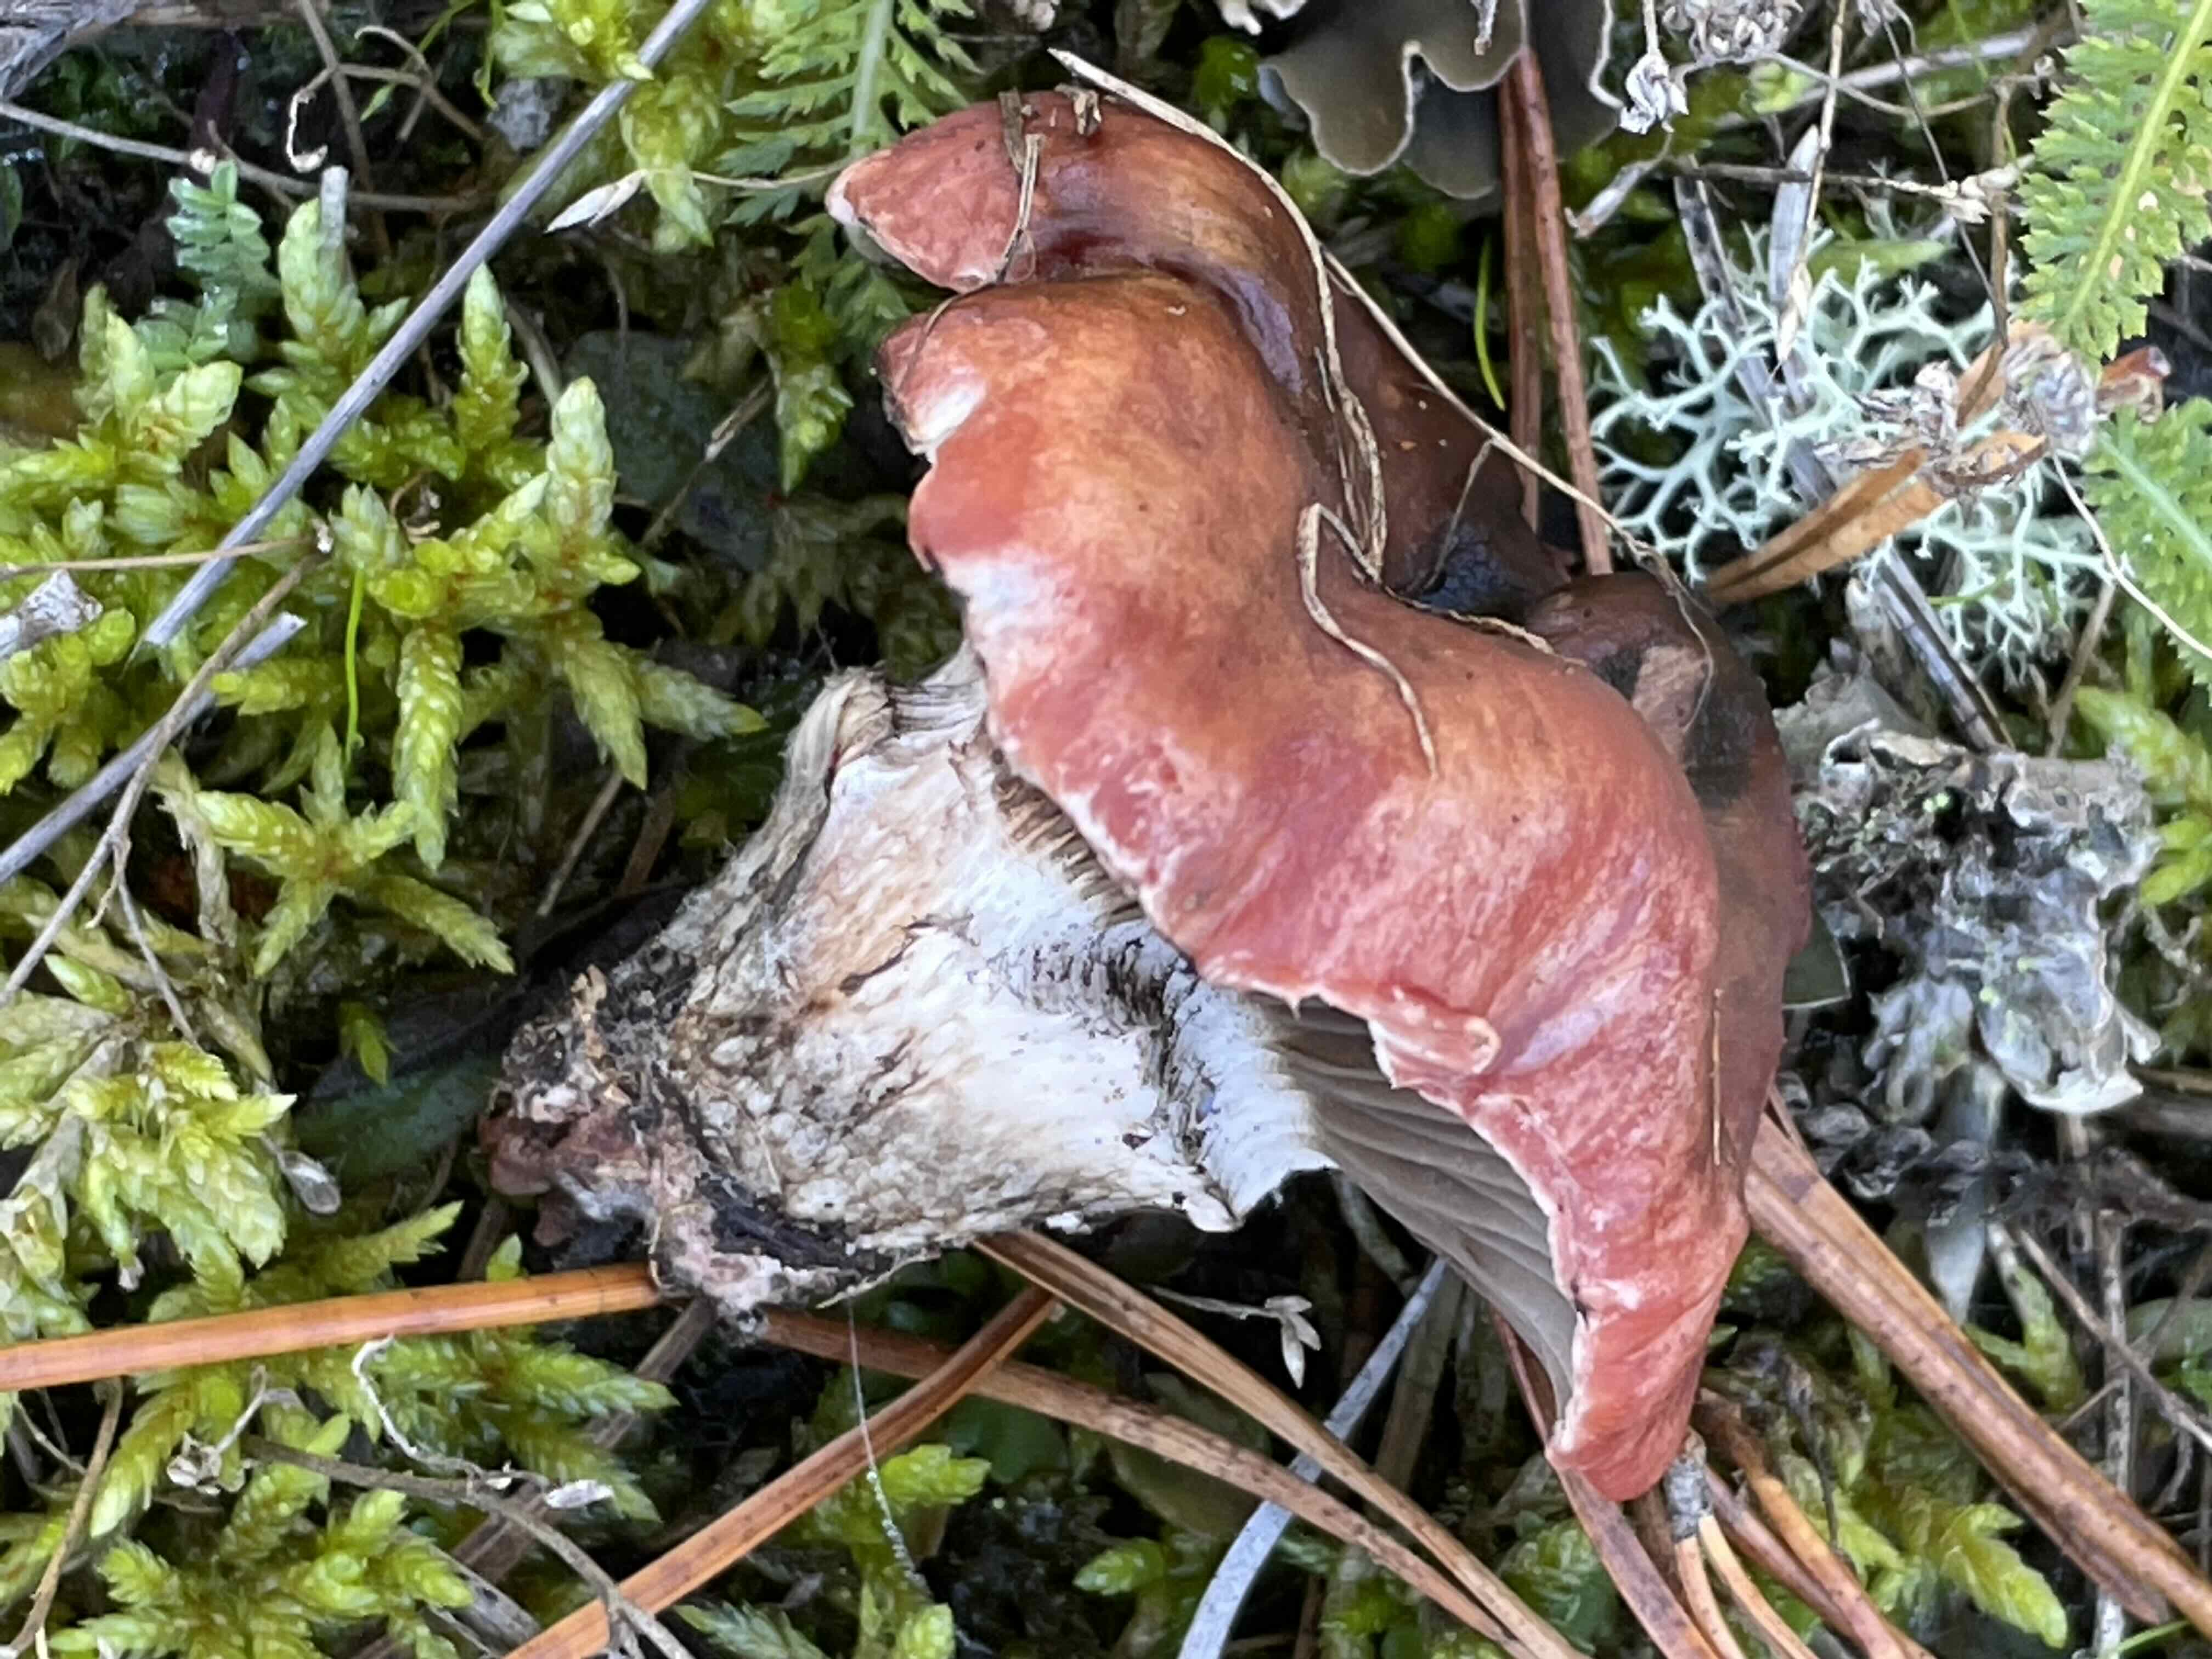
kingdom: Fungi
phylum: Basidiomycota
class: Agaricomycetes
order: Boletales
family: Gomphidiaceae
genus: Gomphidius
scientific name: Gomphidius roseus
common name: rosenrød slimslør
